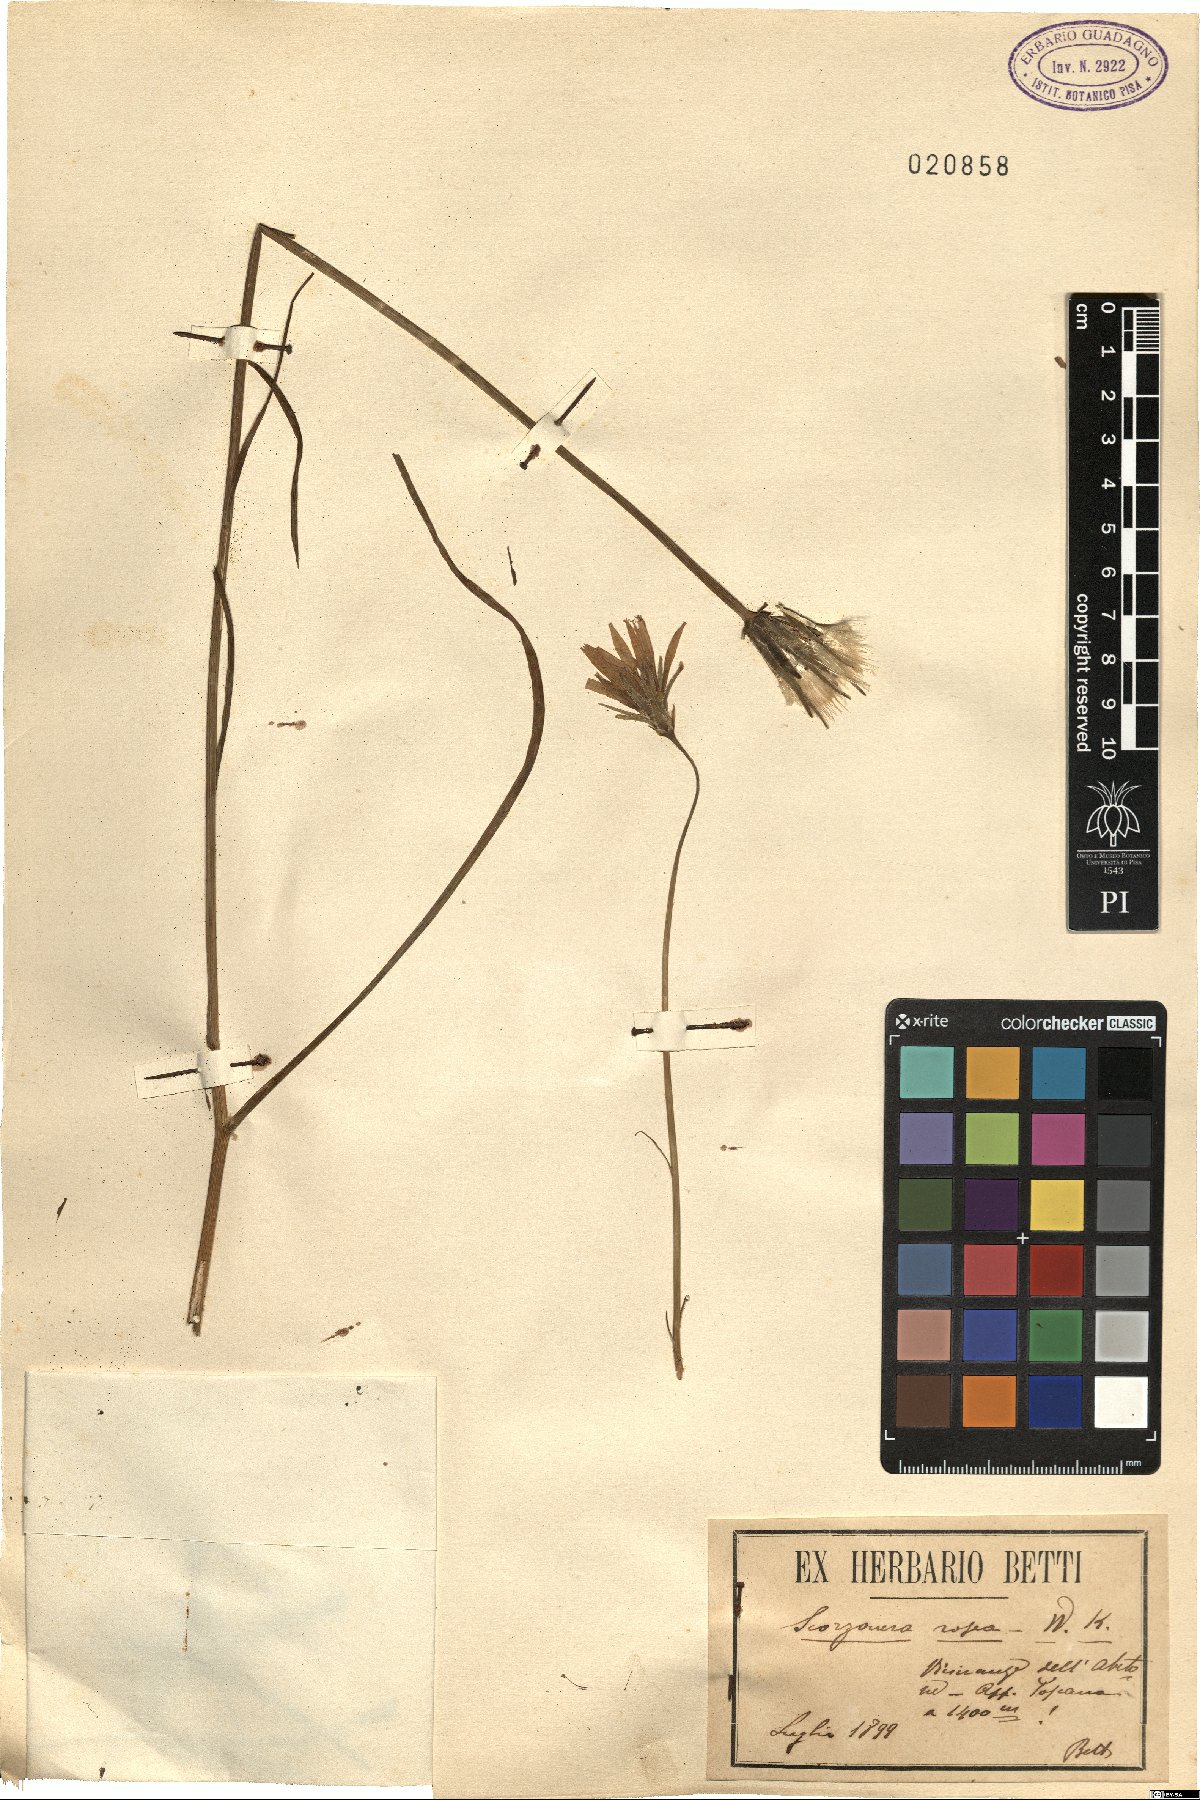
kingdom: Plantae
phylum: Tracheophyta
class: Magnoliopsida
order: Asterales
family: Asteraceae
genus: Scorzonera
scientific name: Scorzonera rosea
